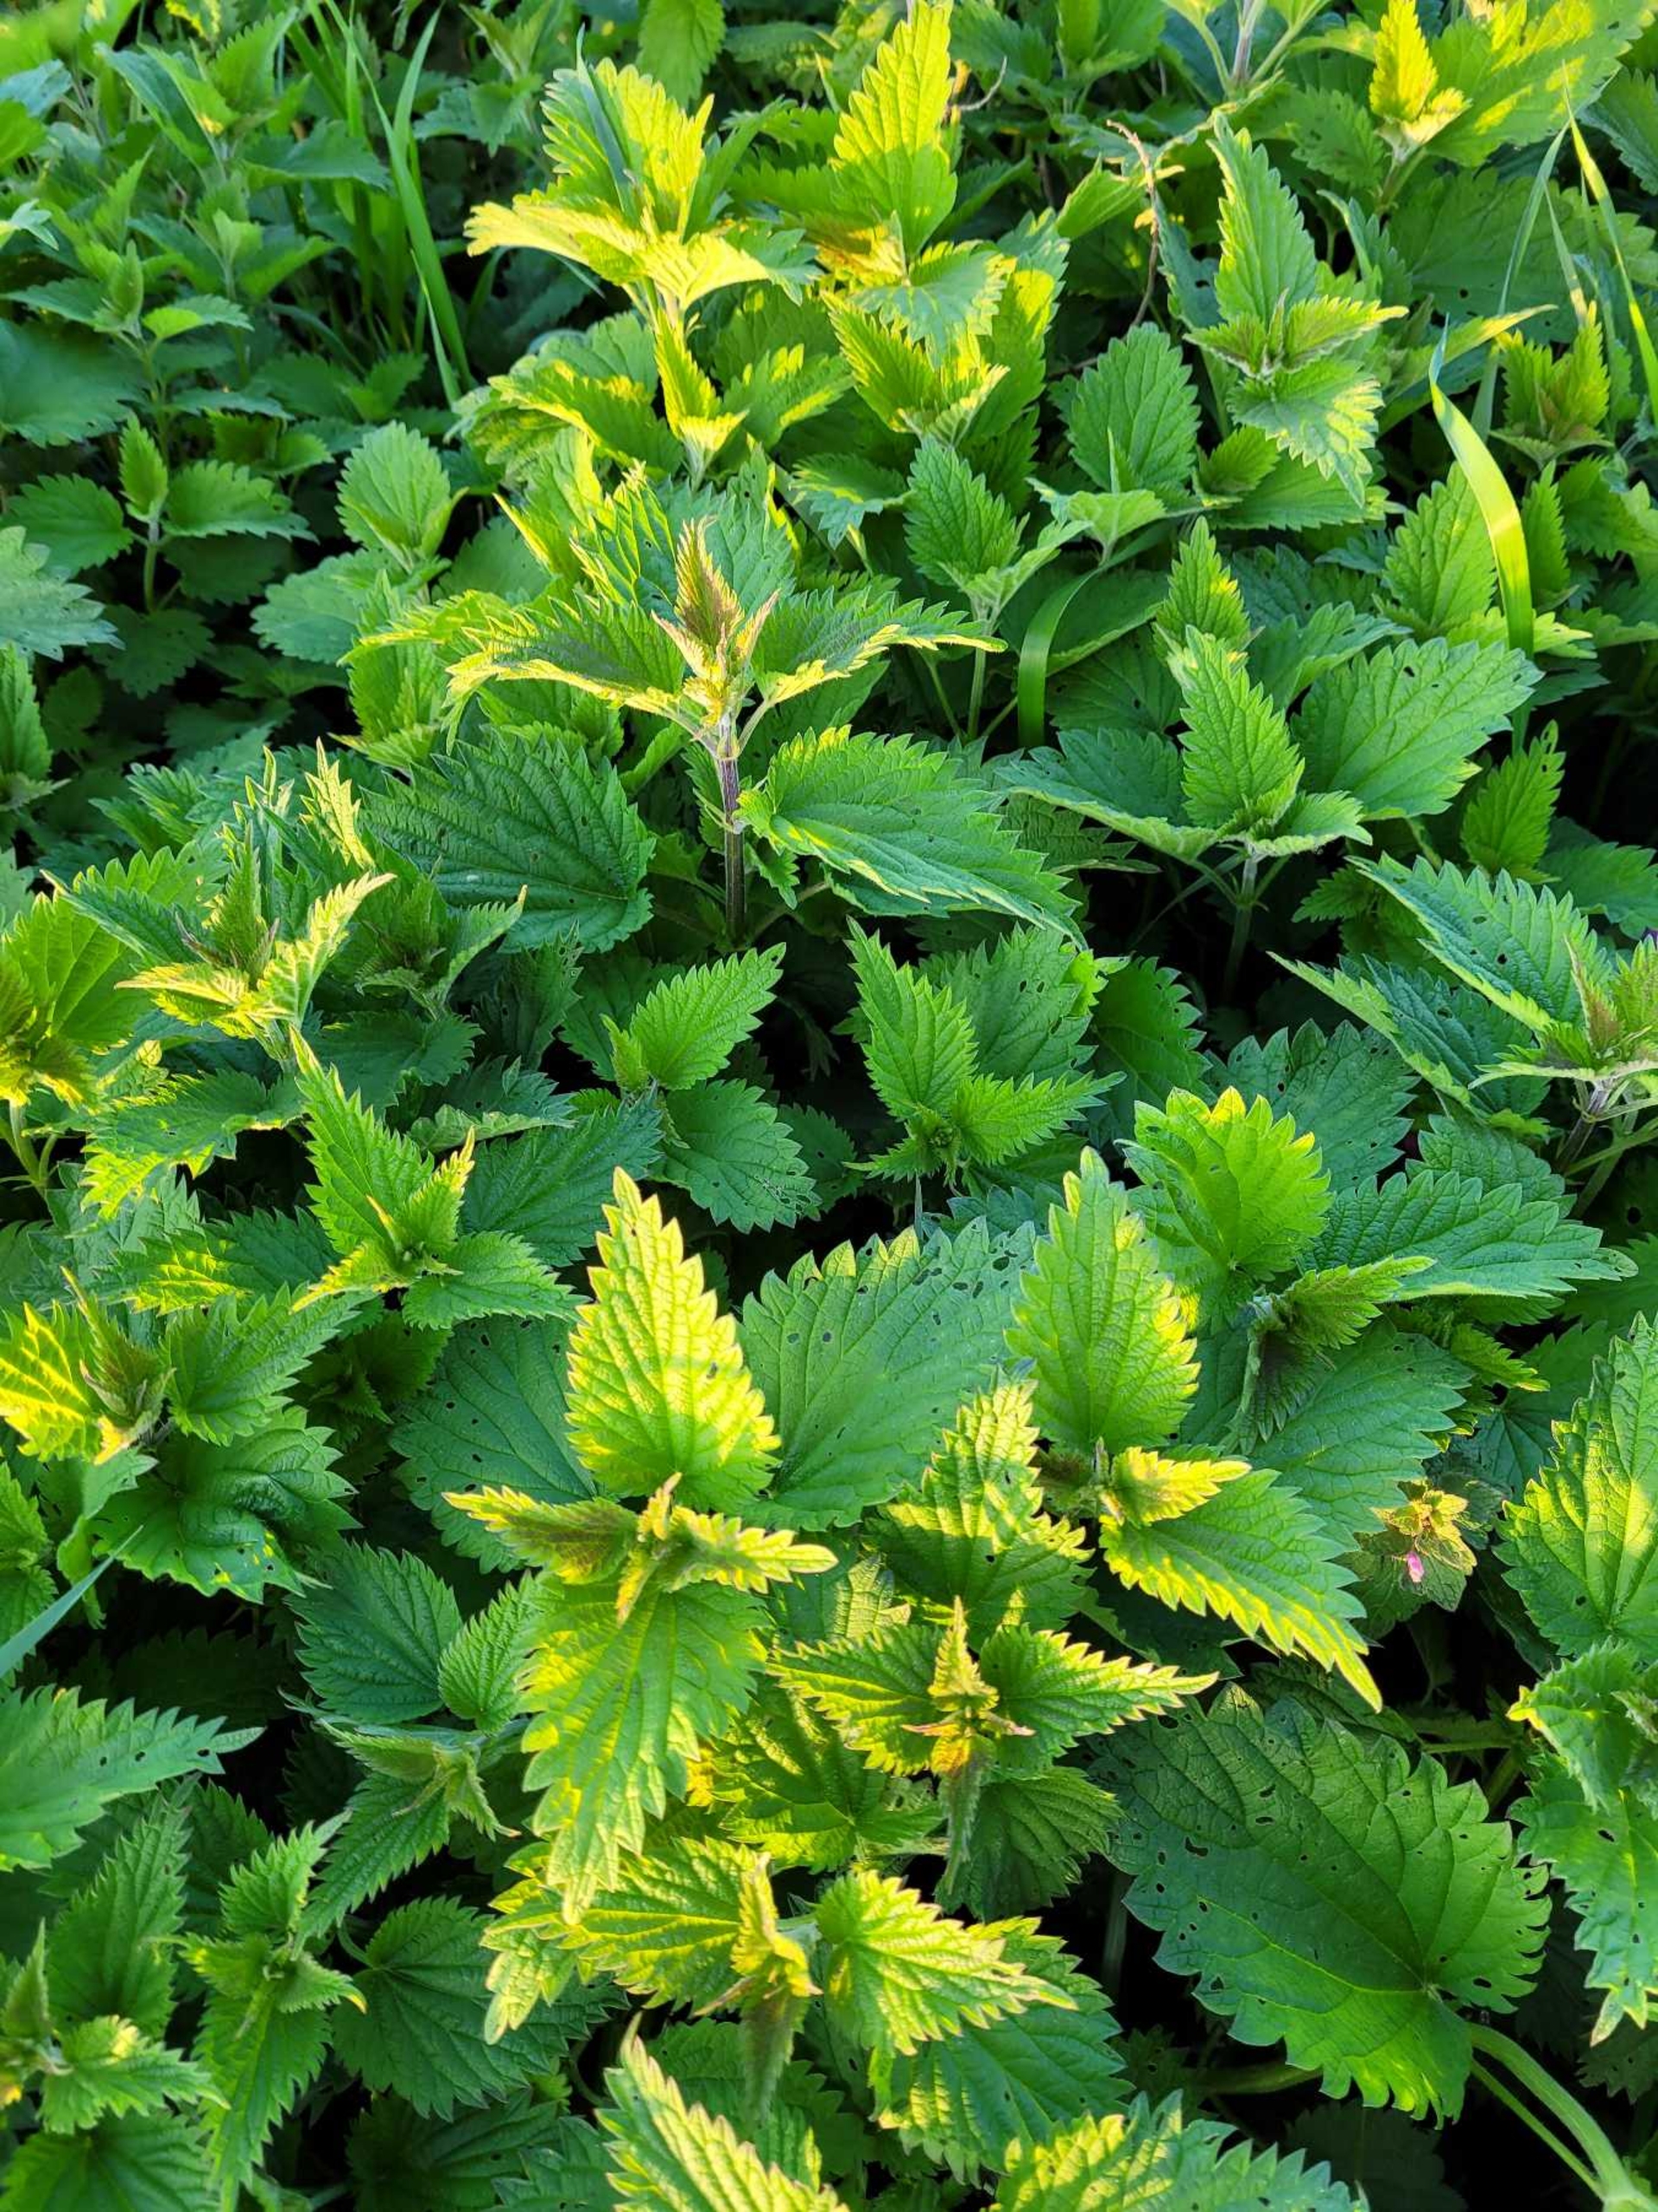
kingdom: Plantae
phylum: Tracheophyta
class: Magnoliopsida
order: Rosales
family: Urticaceae
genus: Urtica
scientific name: Urtica dioica
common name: Stor nælde
